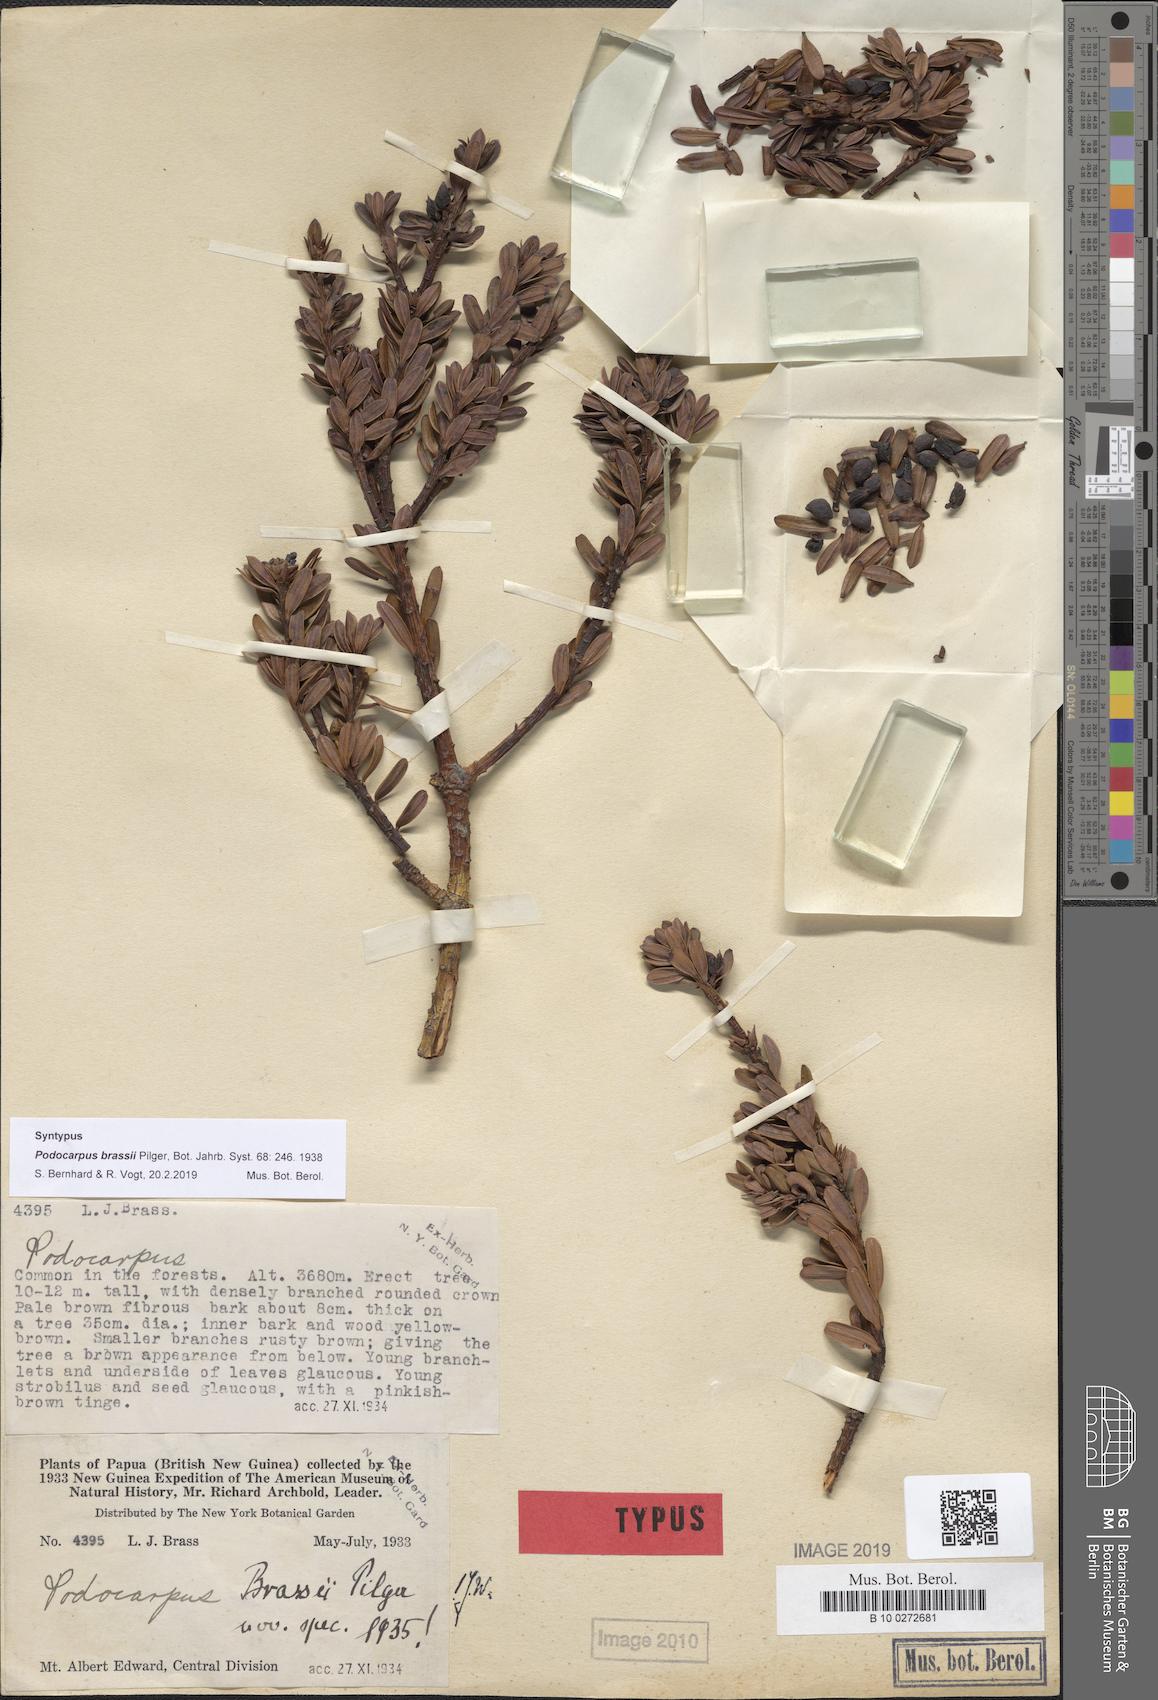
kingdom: Plantae
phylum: Tracheophyta
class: Pinopsida
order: Pinales
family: Podocarpaceae
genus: Podocarpus
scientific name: Podocarpus brassii
